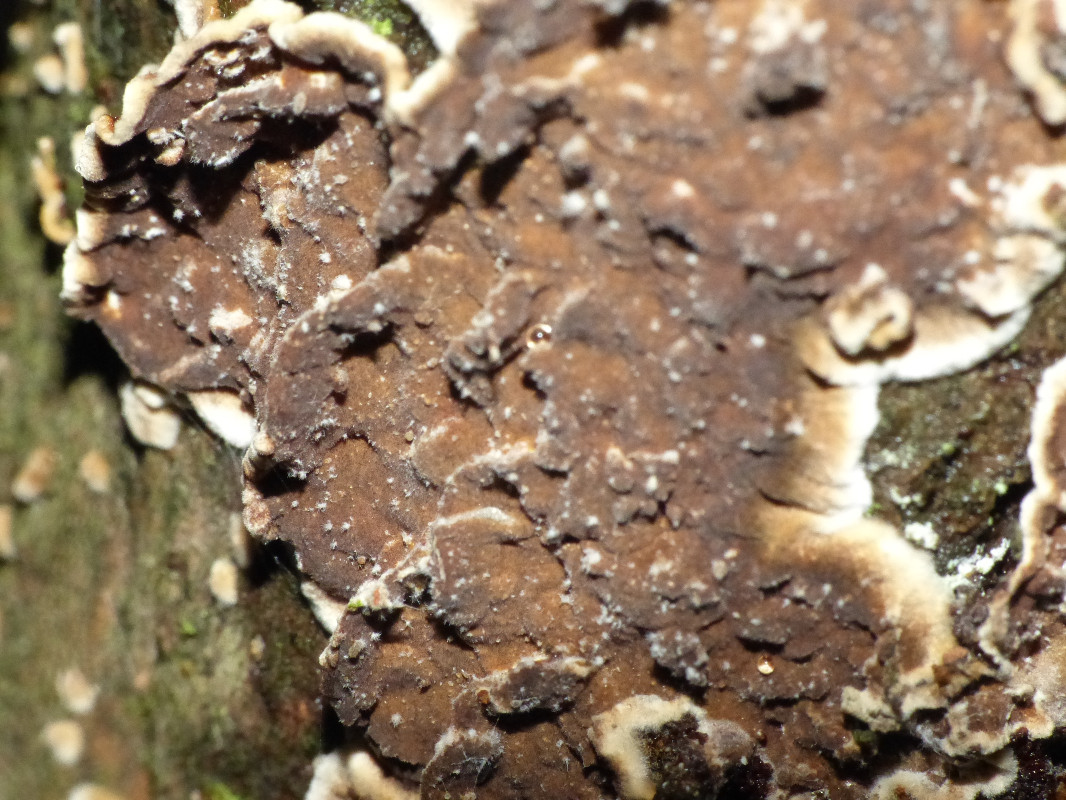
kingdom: Fungi
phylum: Basidiomycota
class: Agaricomycetes
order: Hymenochaetales
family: Hymenochaetaceae
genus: Hydnoporia
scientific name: Hydnoporia tabacina
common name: tobaksbrun ruslædersvamp
